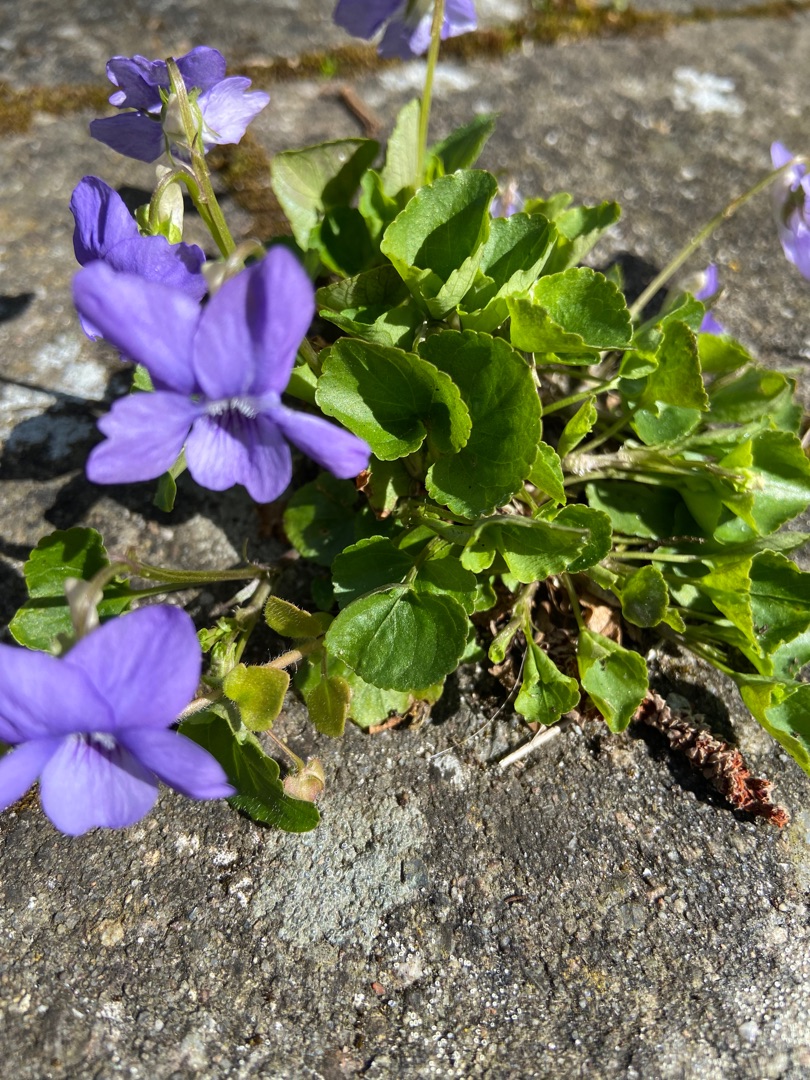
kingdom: Plantae
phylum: Tracheophyta
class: Magnoliopsida
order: Malpighiales
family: Violaceae
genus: Viola
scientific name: Viola riviniana
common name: Krat-viol
